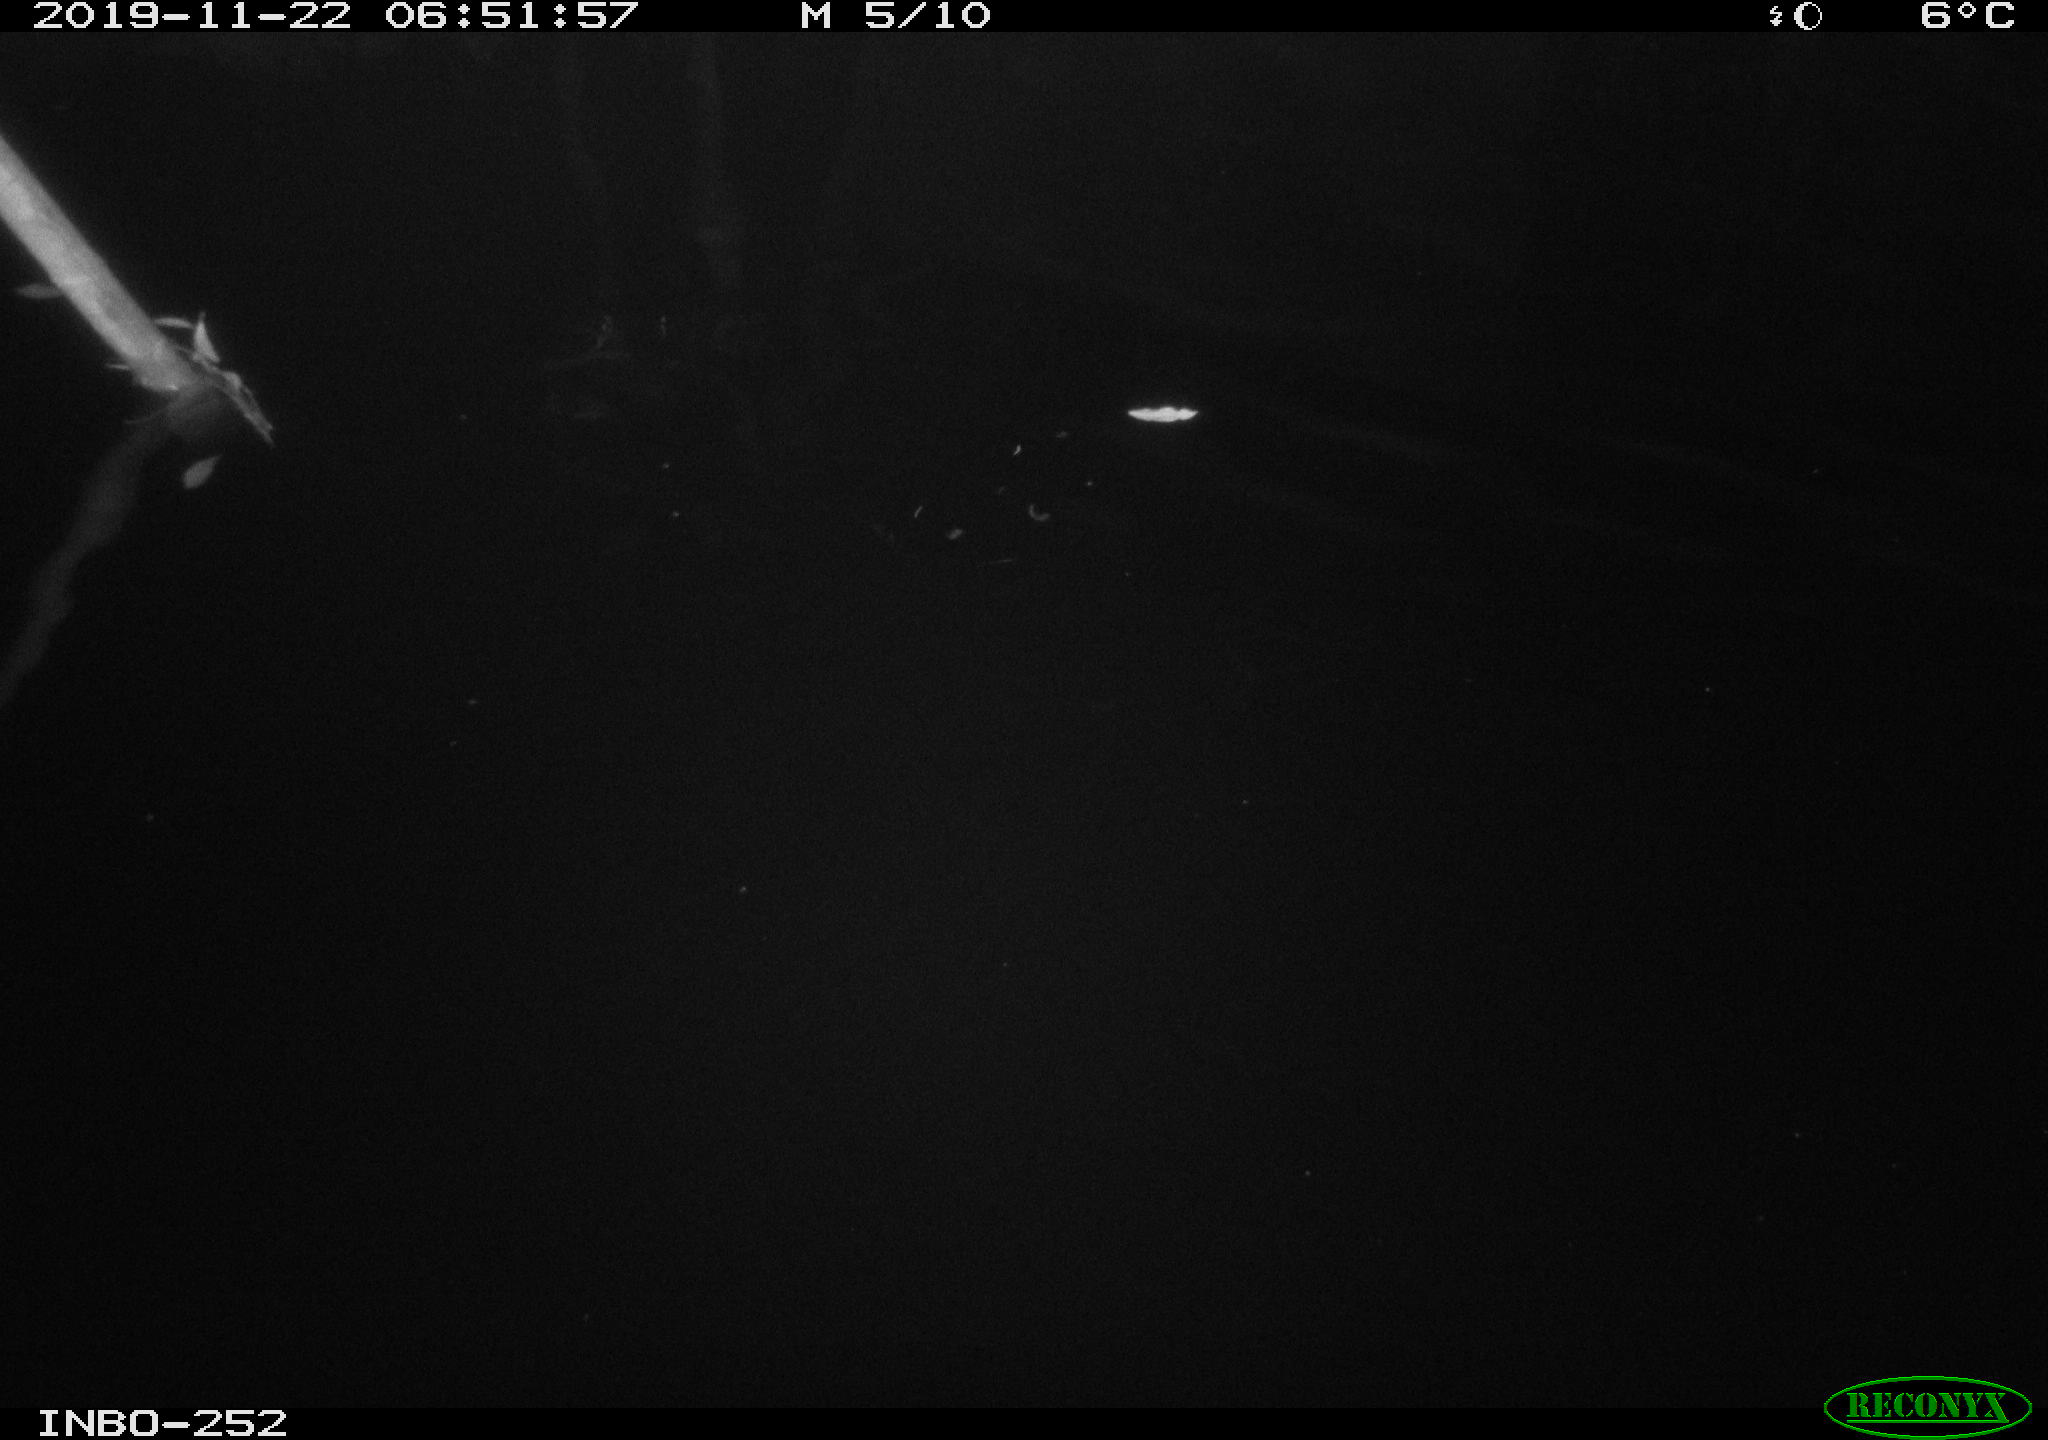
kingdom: Animalia
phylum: Chordata
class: Aves
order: Anseriformes
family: Anatidae
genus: Anas
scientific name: Anas platyrhynchos
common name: Mallard
